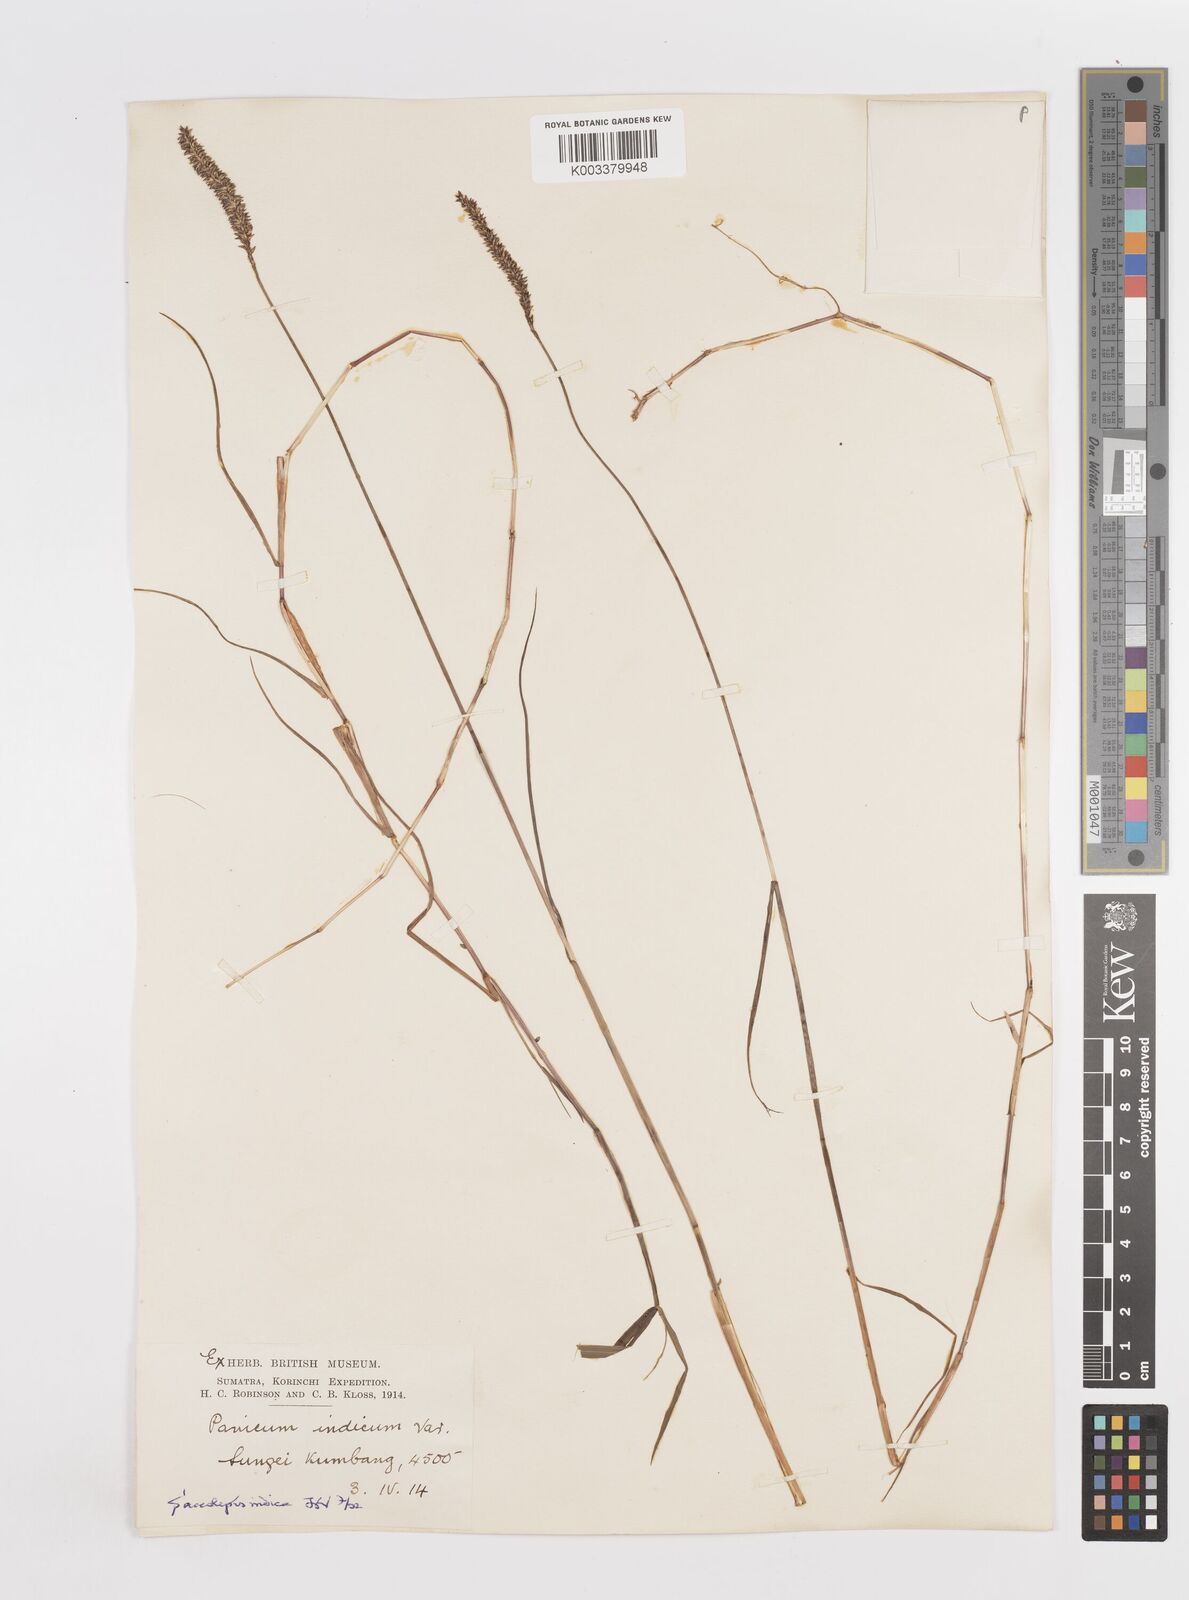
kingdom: Plantae
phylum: Tracheophyta
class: Liliopsida
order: Poales
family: Poaceae
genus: Sacciolepis
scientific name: Sacciolepis indica
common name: Glenwoodgrass
